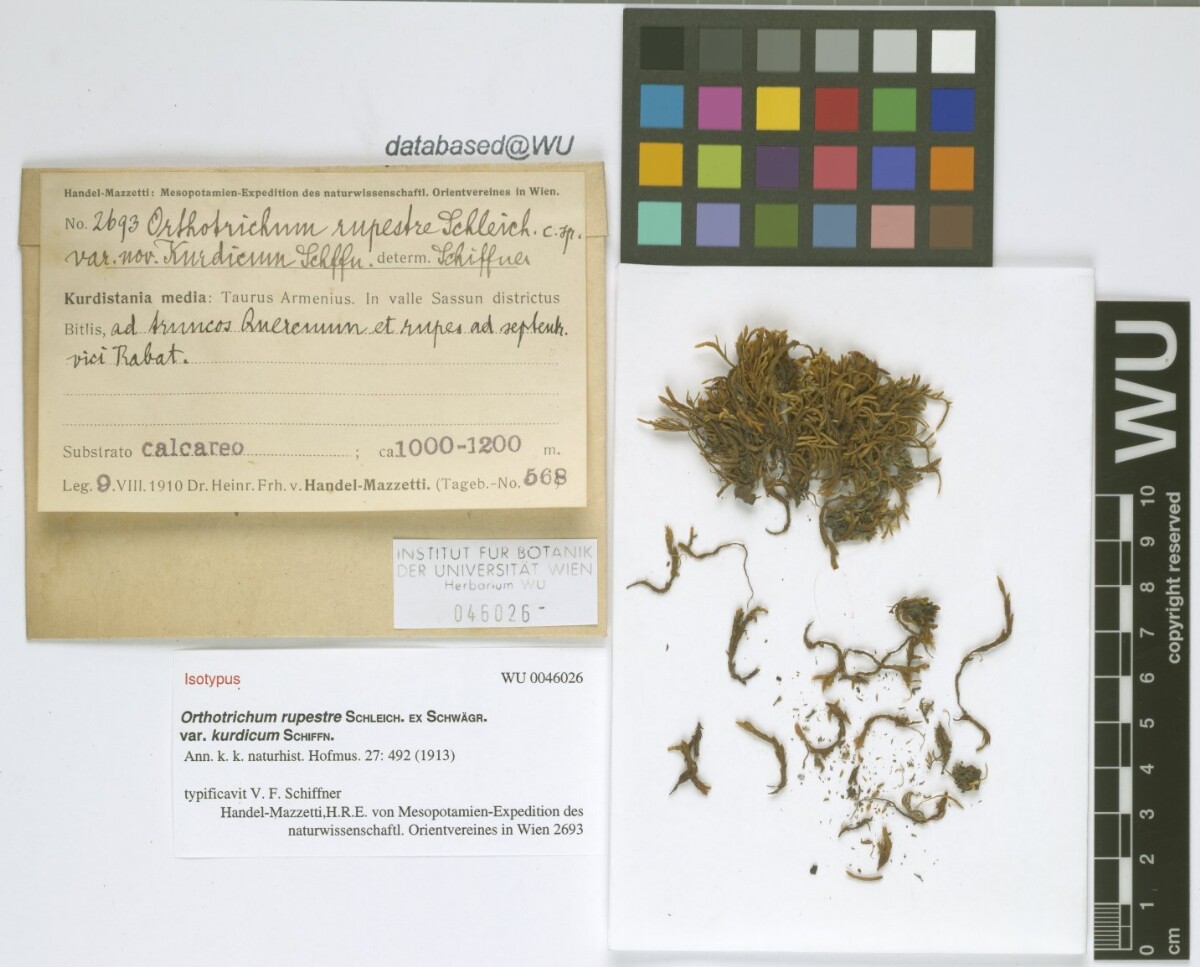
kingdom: Plantae
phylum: Bryophyta
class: Bryopsida
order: Orthotrichales
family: Orthotrichaceae
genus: Lewinskya
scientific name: Lewinskya rupestris
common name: Rock bristle-moss
